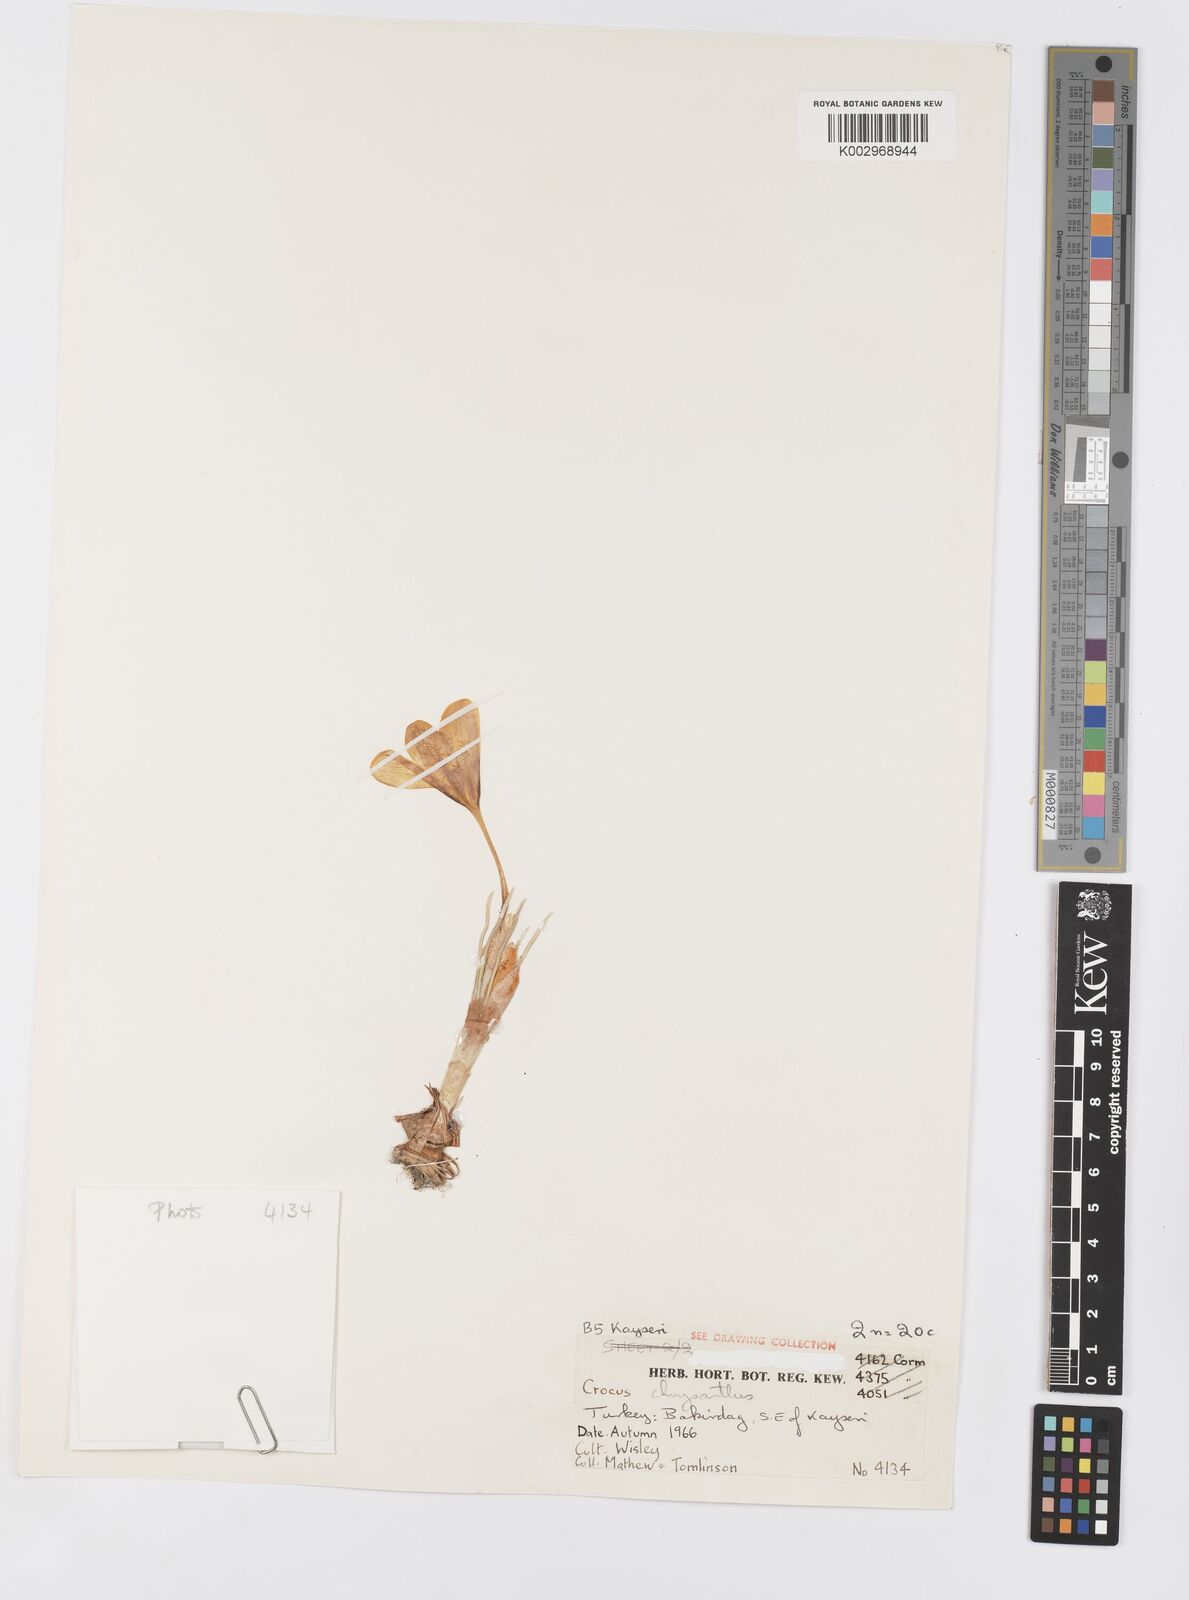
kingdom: Plantae
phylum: Tracheophyta
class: Liliopsida
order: Asparagales
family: Iridaceae
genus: Crocus
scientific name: Crocus chrysanthus
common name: Golden crocus
